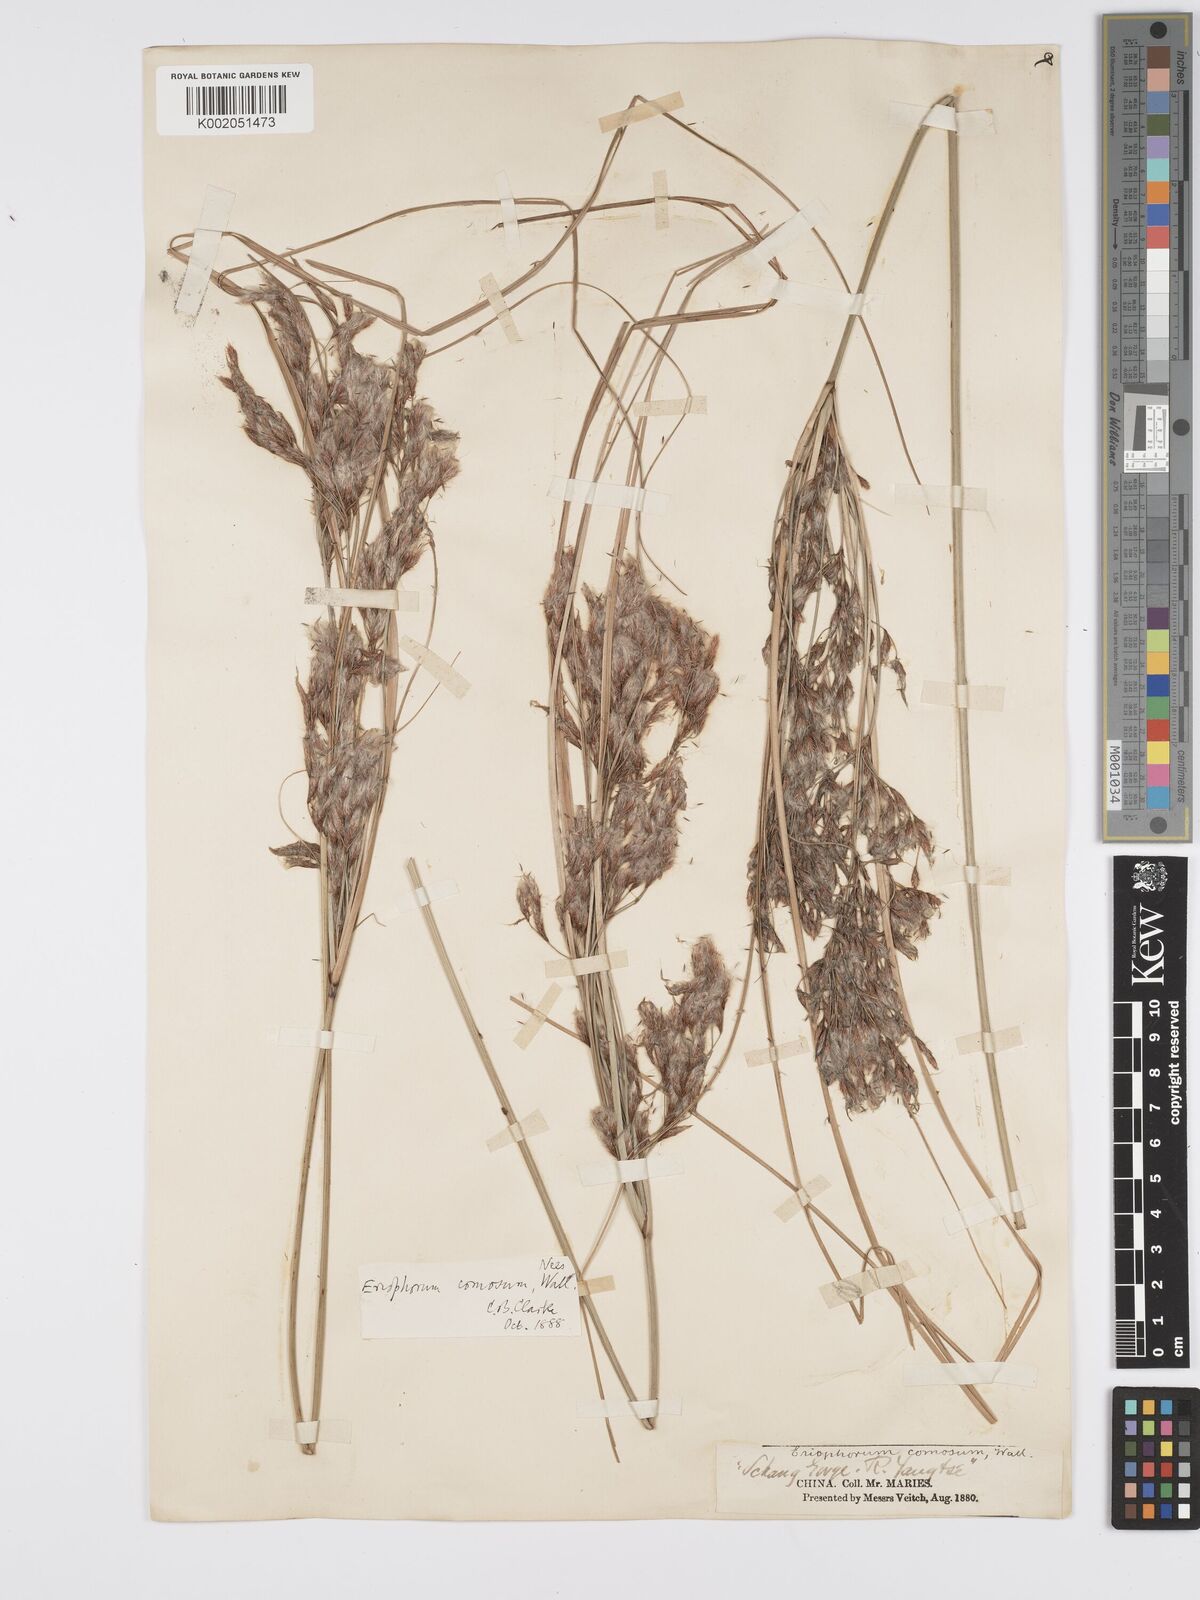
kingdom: Plantae
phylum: Tracheophyta
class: Liliopsida
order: Poales
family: Cyperaceae
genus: Erioscirpus
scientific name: Erioscirpus comosus
